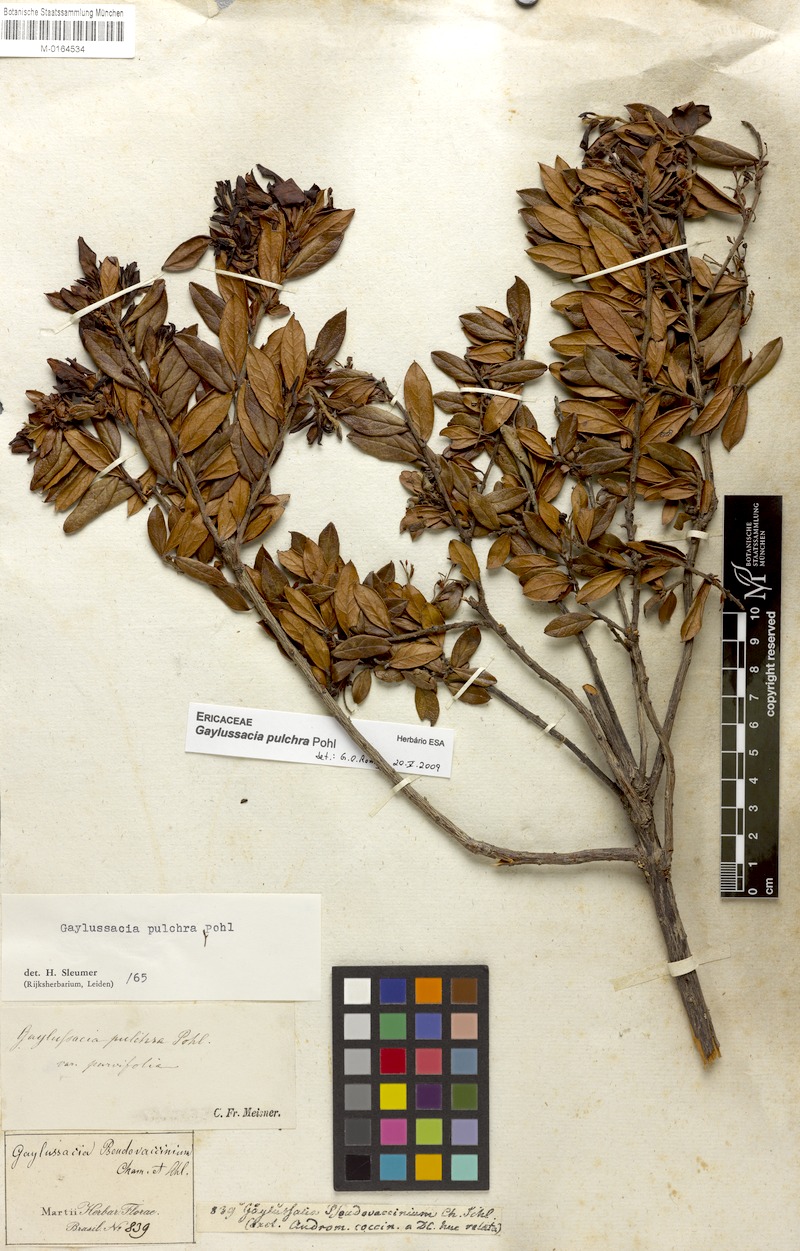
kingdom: Plantae
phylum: Tracheophyta
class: Magnoliopsida
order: Ericales
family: Ericaceae
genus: Gaylussacia
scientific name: Gaylussacia pulchra
